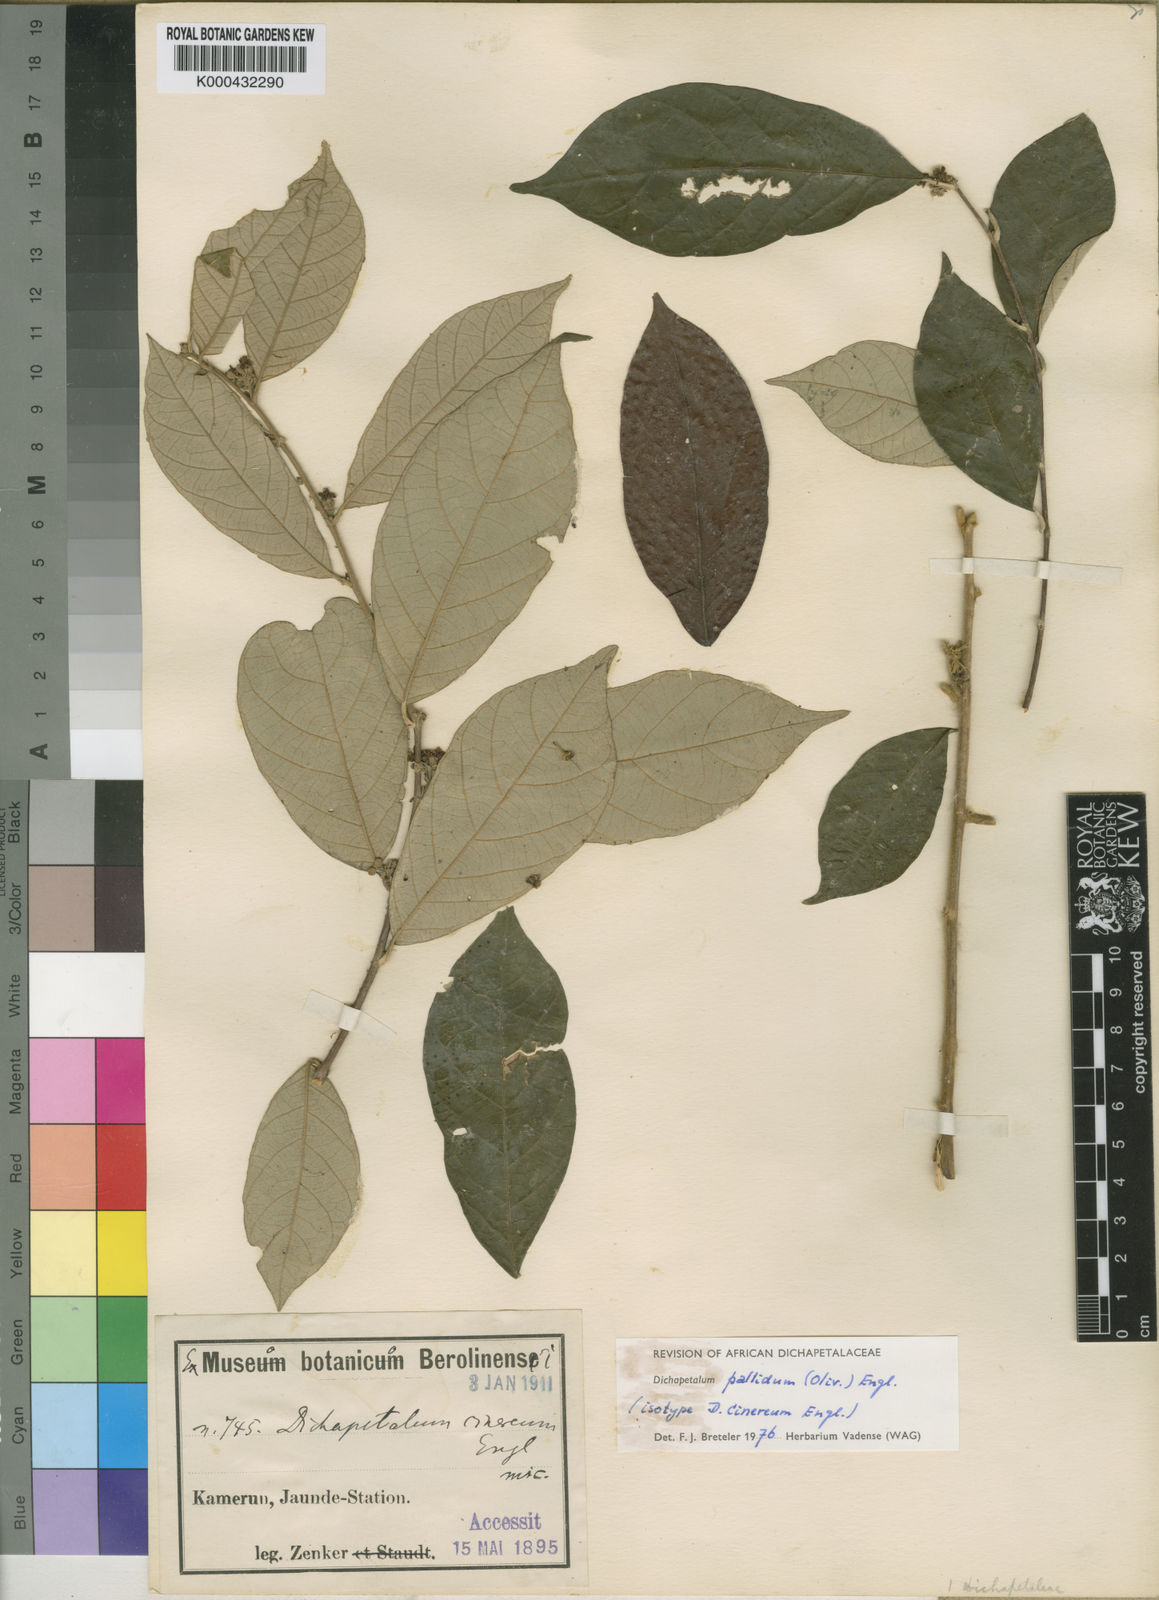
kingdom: Plantae
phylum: Tracheophyta
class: Magnoliopsida
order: Malpighiales
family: Dichapetalaceae
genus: Dichapetalum
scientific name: Dichapetalum pallidum
